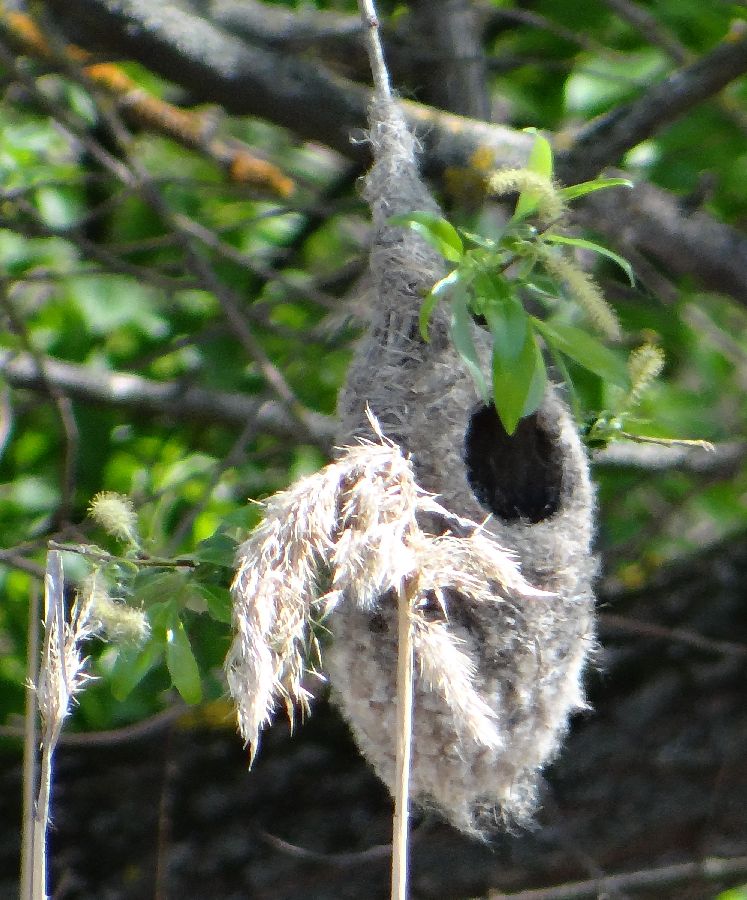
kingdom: Animalia
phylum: Chordata
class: Aves
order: Passeriformes
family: Remizidae
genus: Remiz
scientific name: Remiz pendulinus
